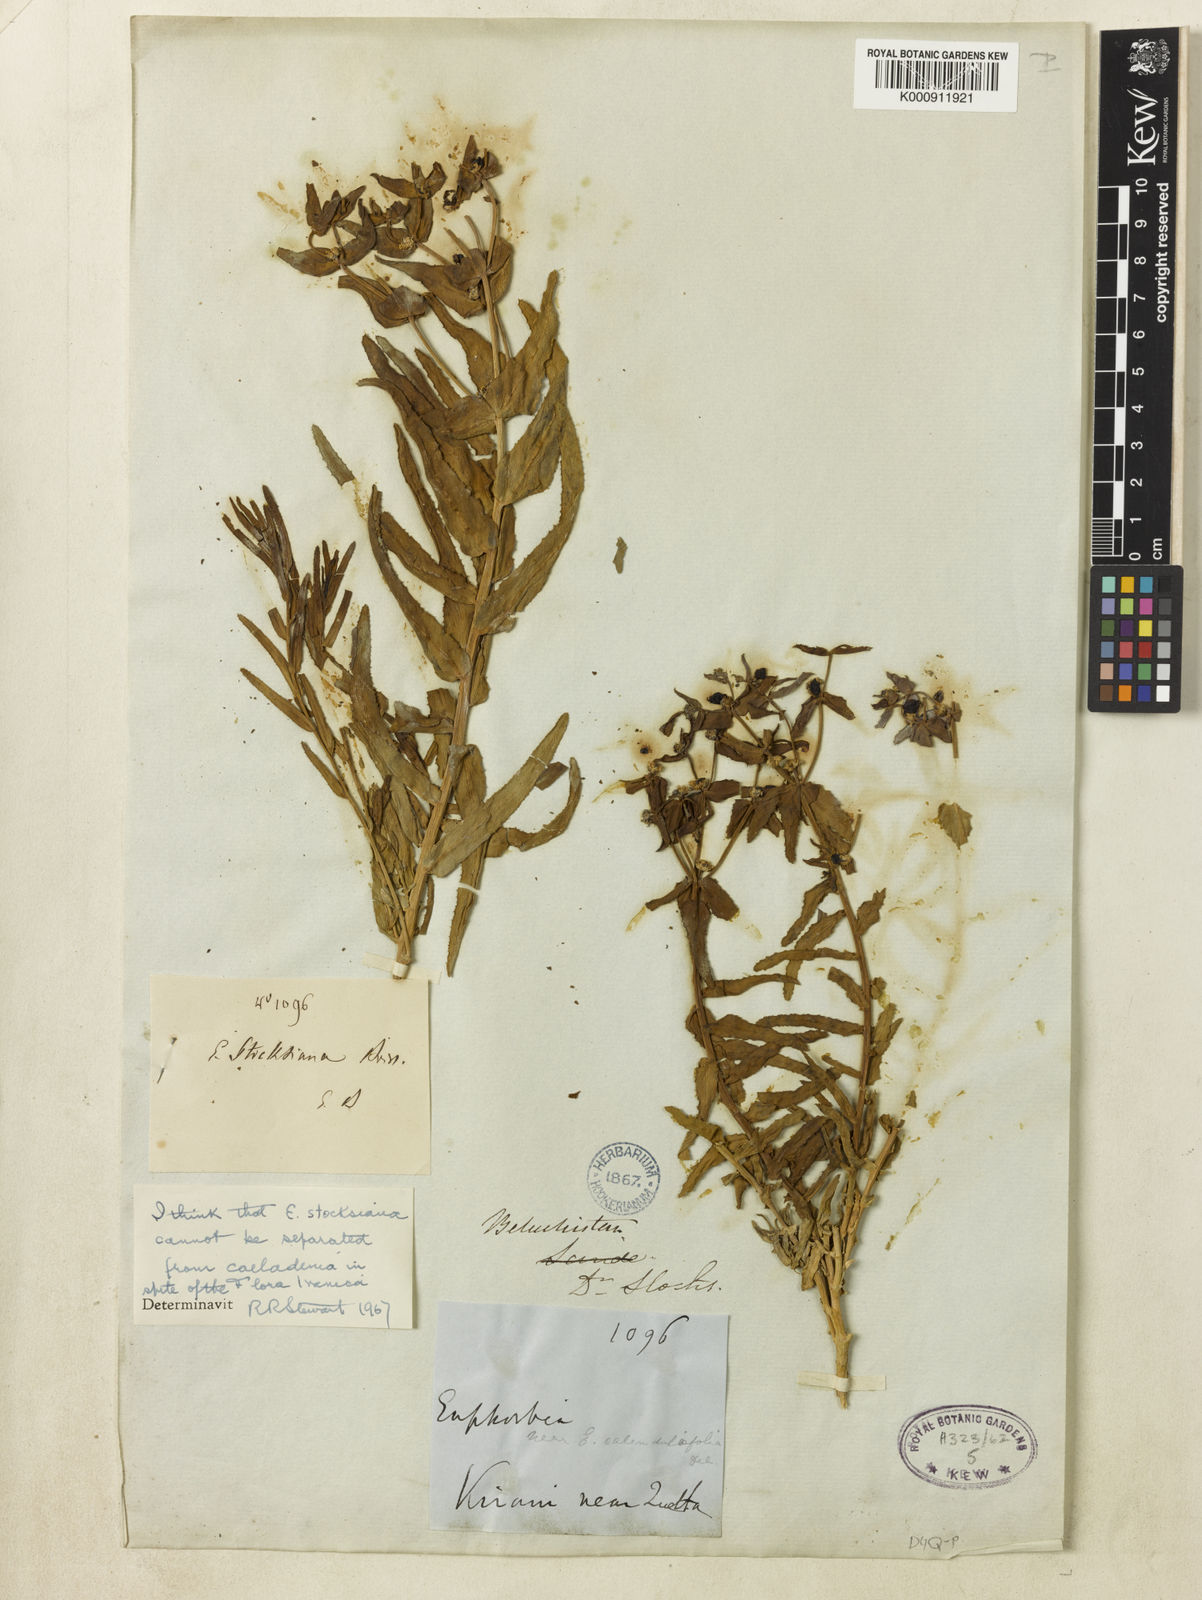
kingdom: Plantae
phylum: Tracheophyta
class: Magnoliopsida
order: Malpighiales
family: Euphorbiaceae
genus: Euphorbia
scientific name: Euphorbia caeladenia
